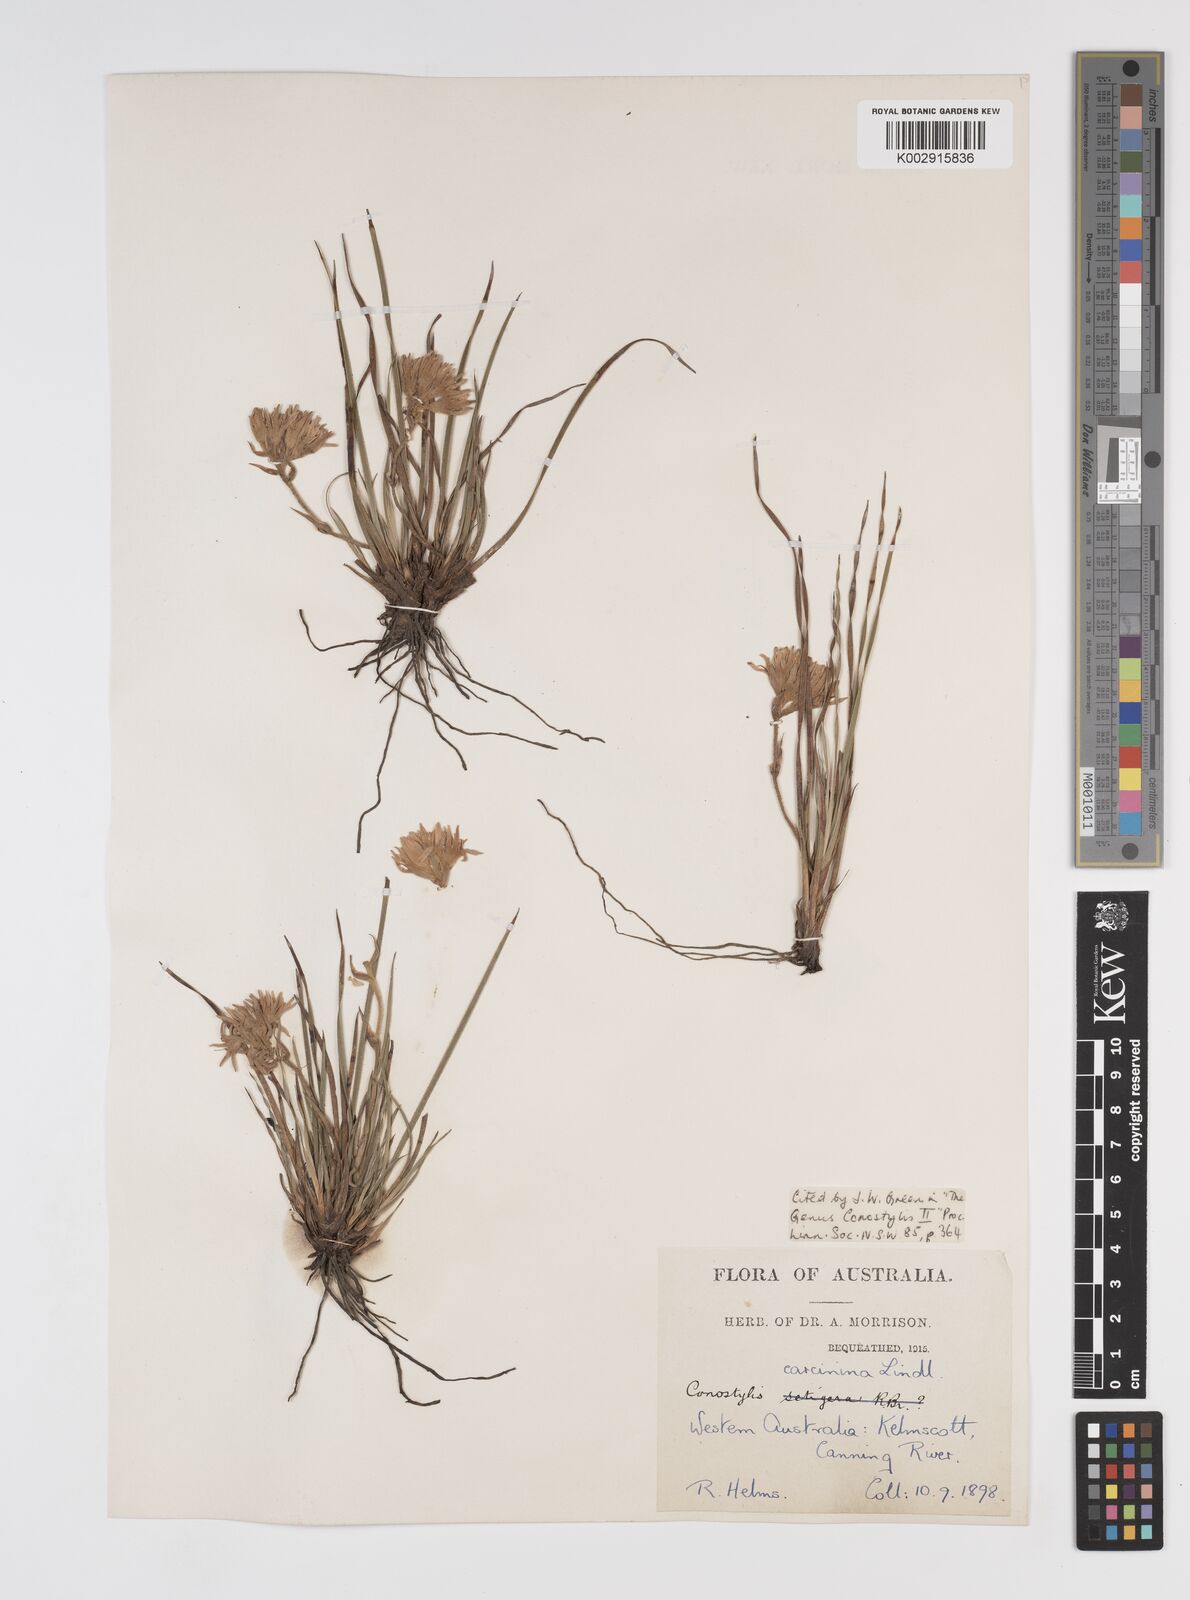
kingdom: Plantae
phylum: Tracheophyta
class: Liliopsida
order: Commelinales
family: Haemodoraceae
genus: Conostylis
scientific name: Conostylis caricina
